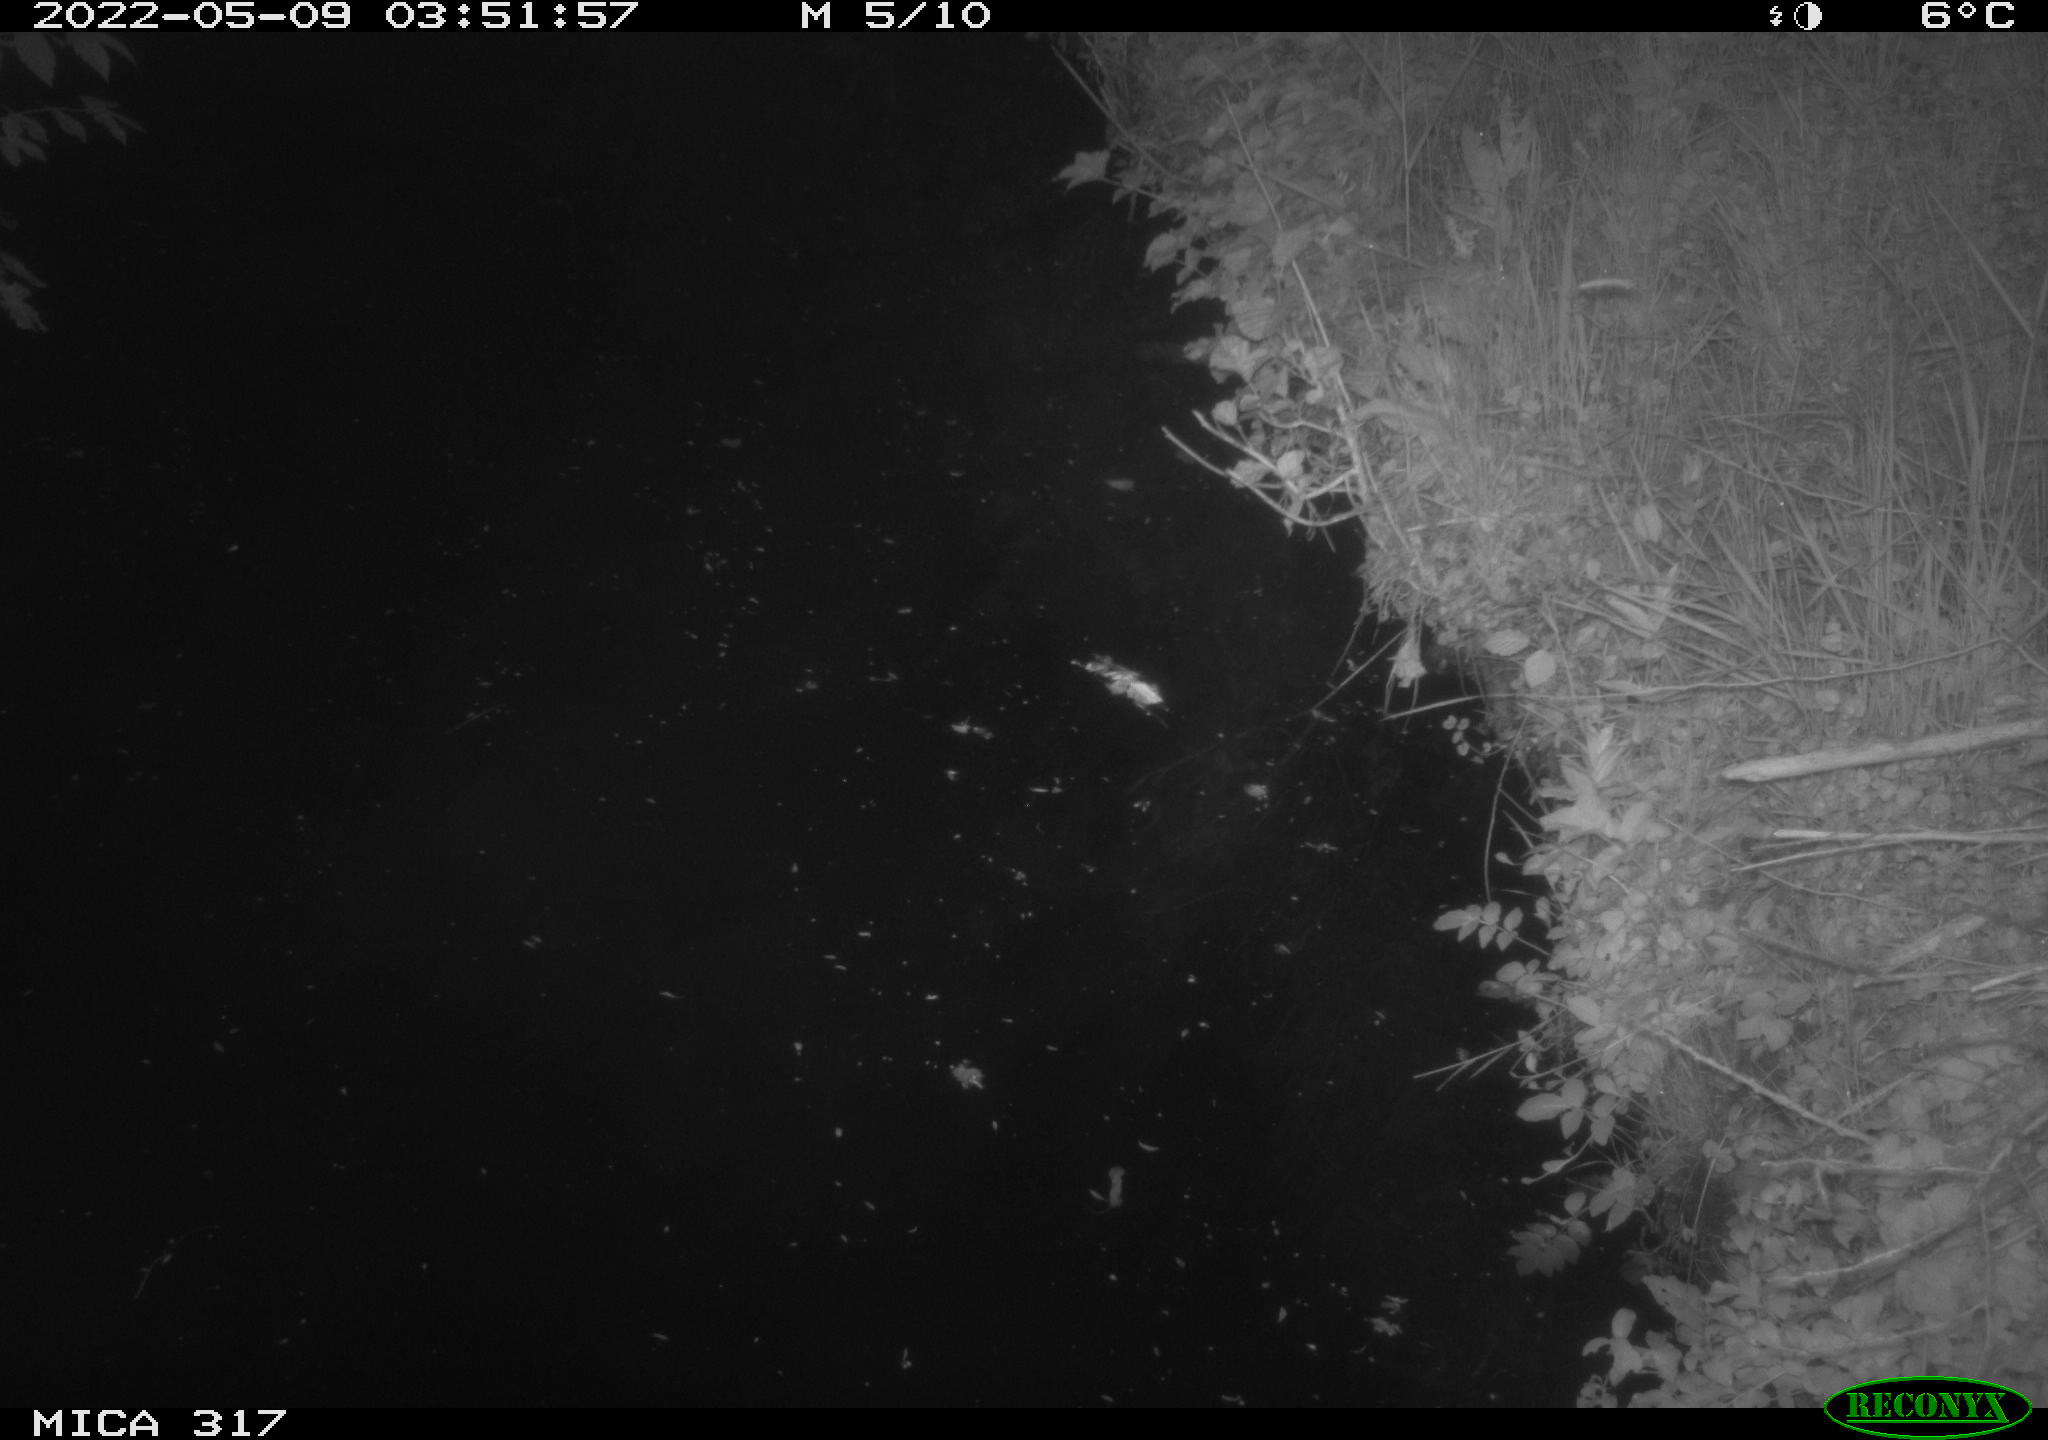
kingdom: Animalia
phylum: Chordata
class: Aves
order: Anseriformes
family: Anatidae
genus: Anas
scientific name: Anas platyrhynchos
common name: Mallard
